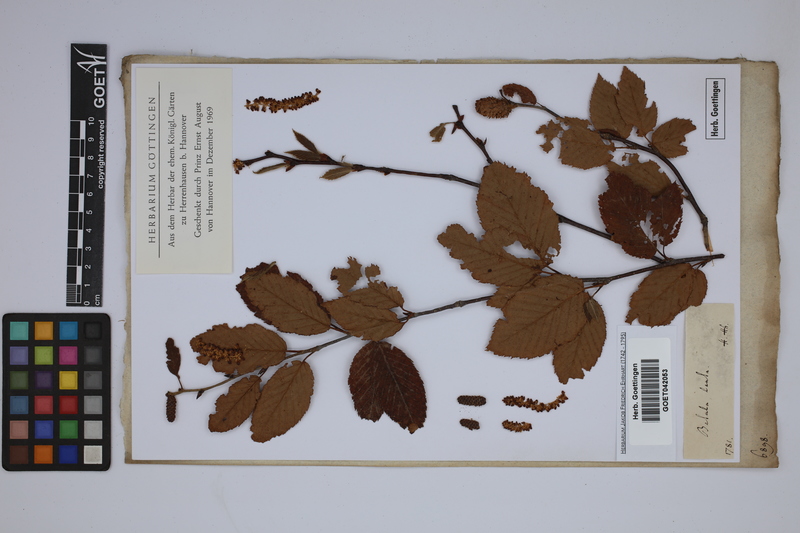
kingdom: Plantae
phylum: Tracheophyta
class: Magnoliopsida
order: Fagales
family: Betulaceae
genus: Betula
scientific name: Betula lenta
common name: Black birch
